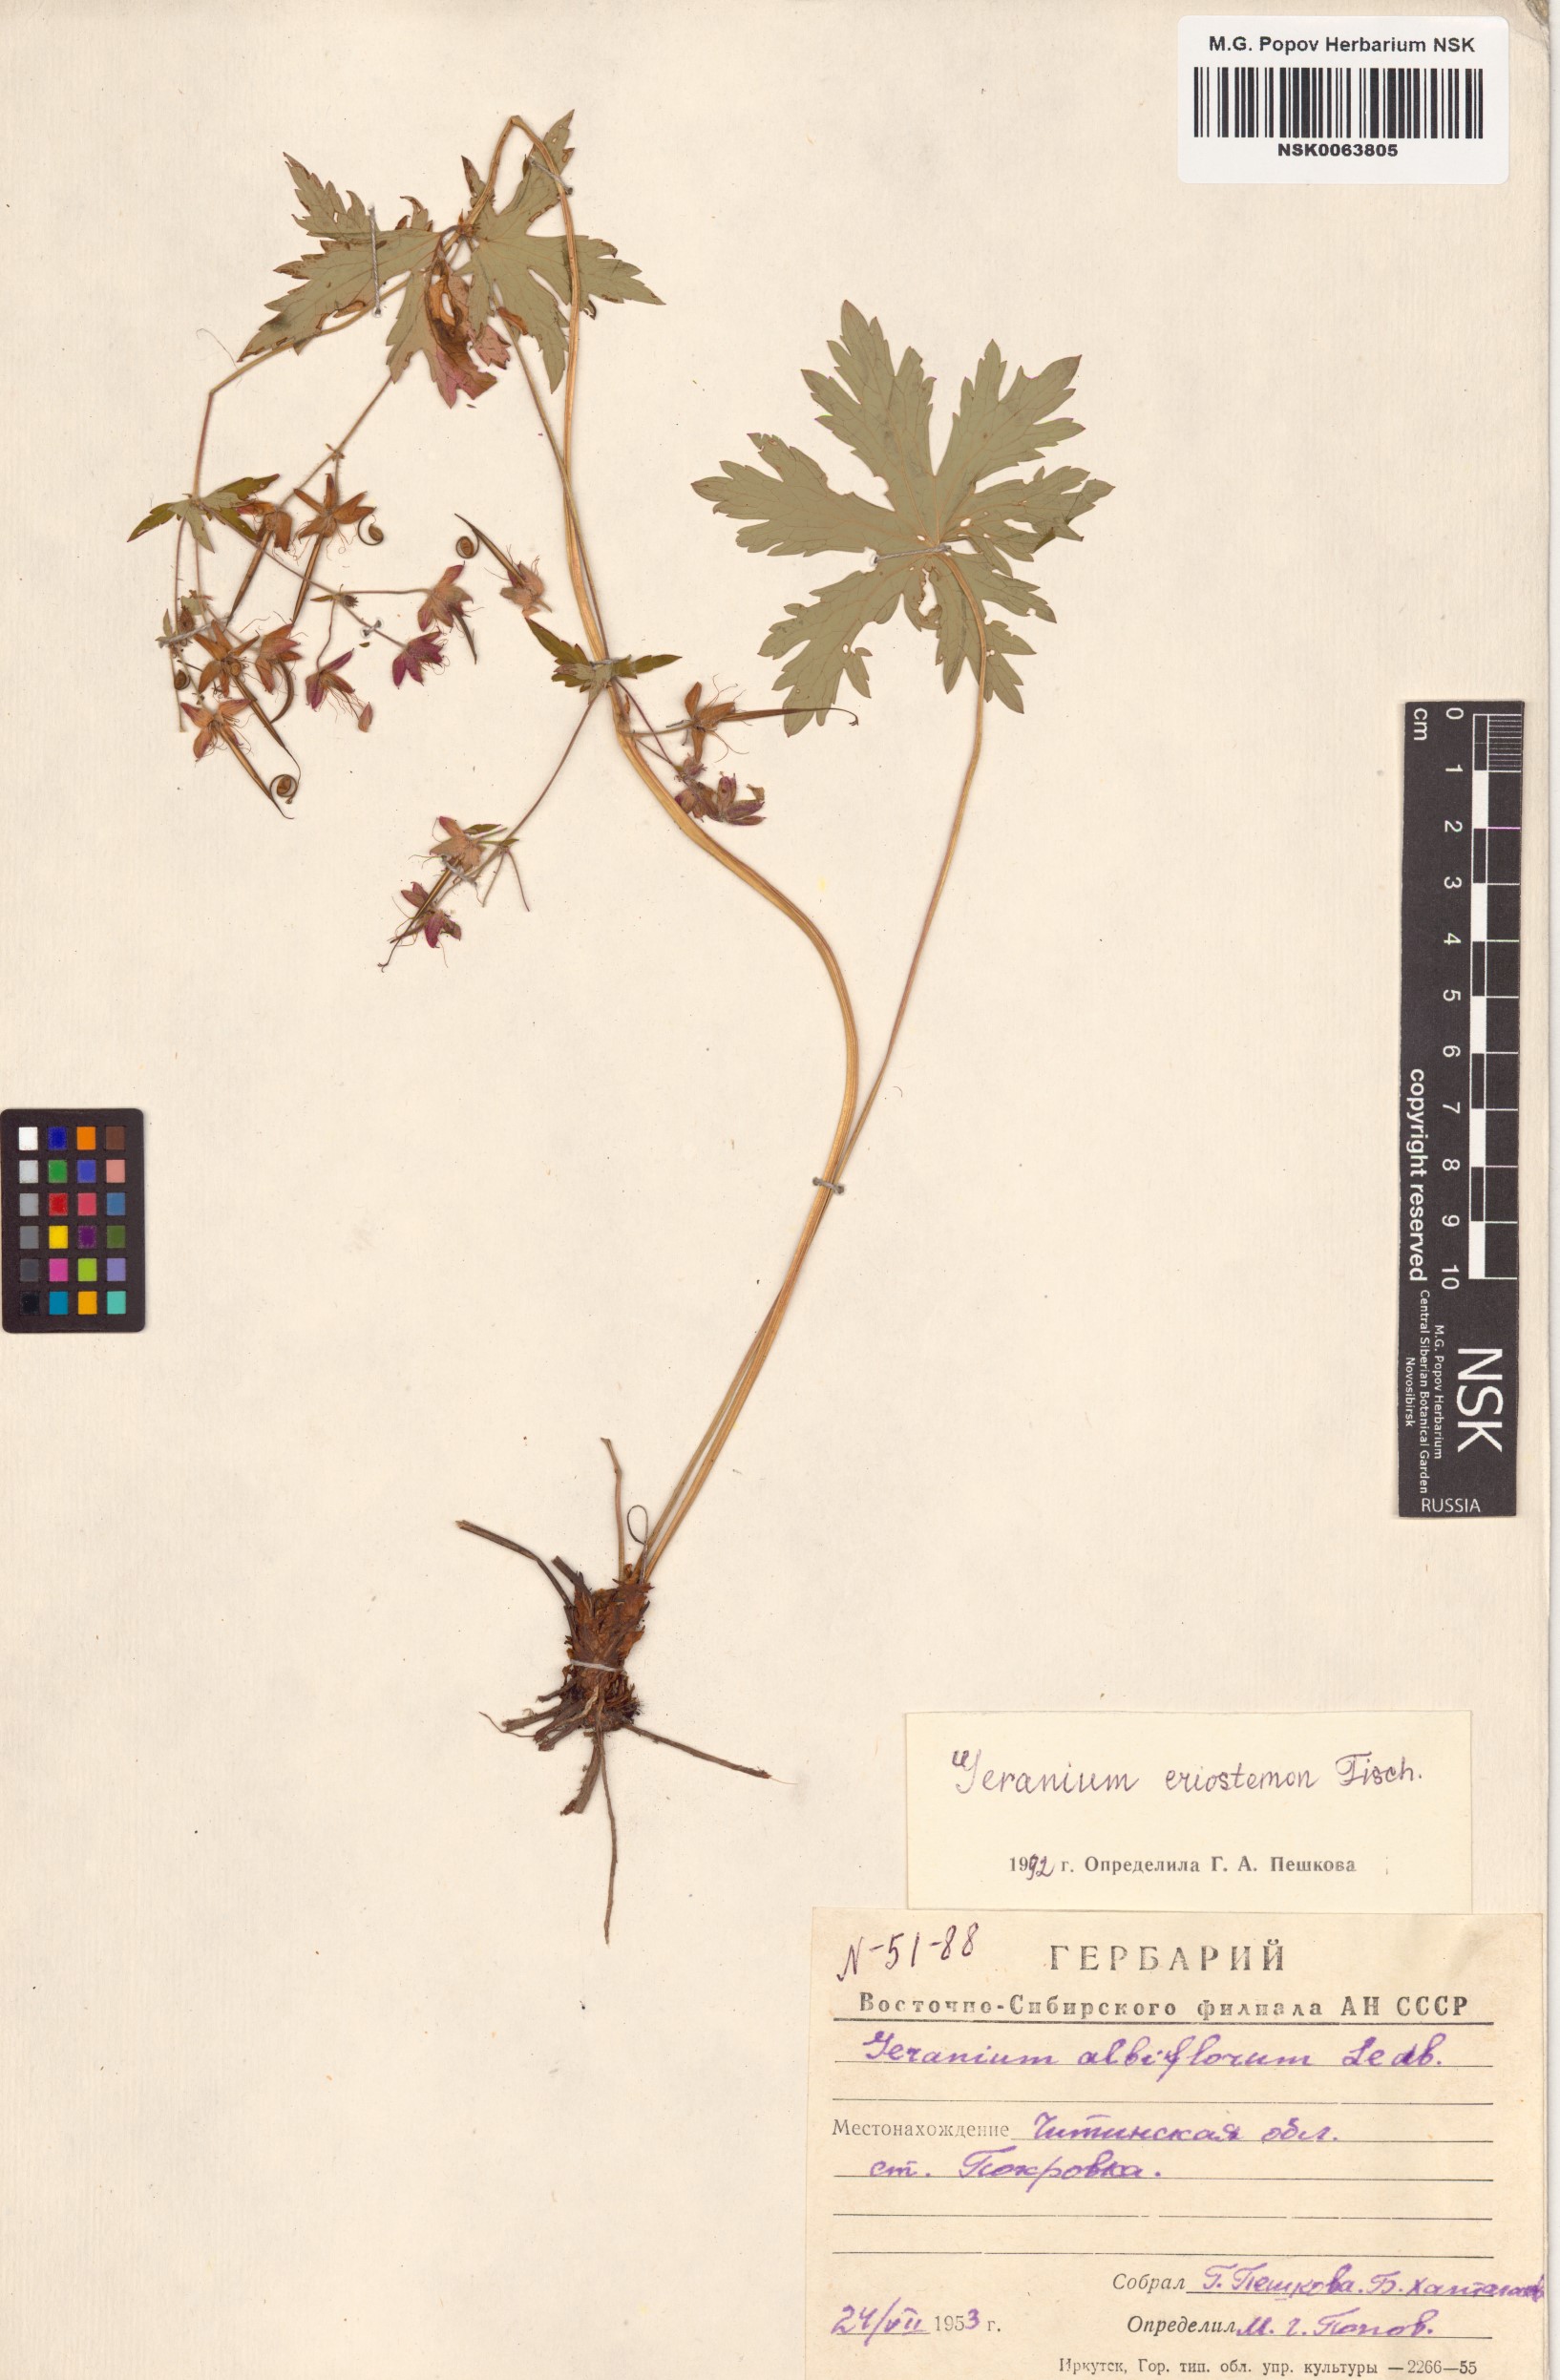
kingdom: Plantae
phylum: Tracheophyta
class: Magnoliopsida
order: Geraniales
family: Geraniaceae
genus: Geranium
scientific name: Geranium platyanthum
